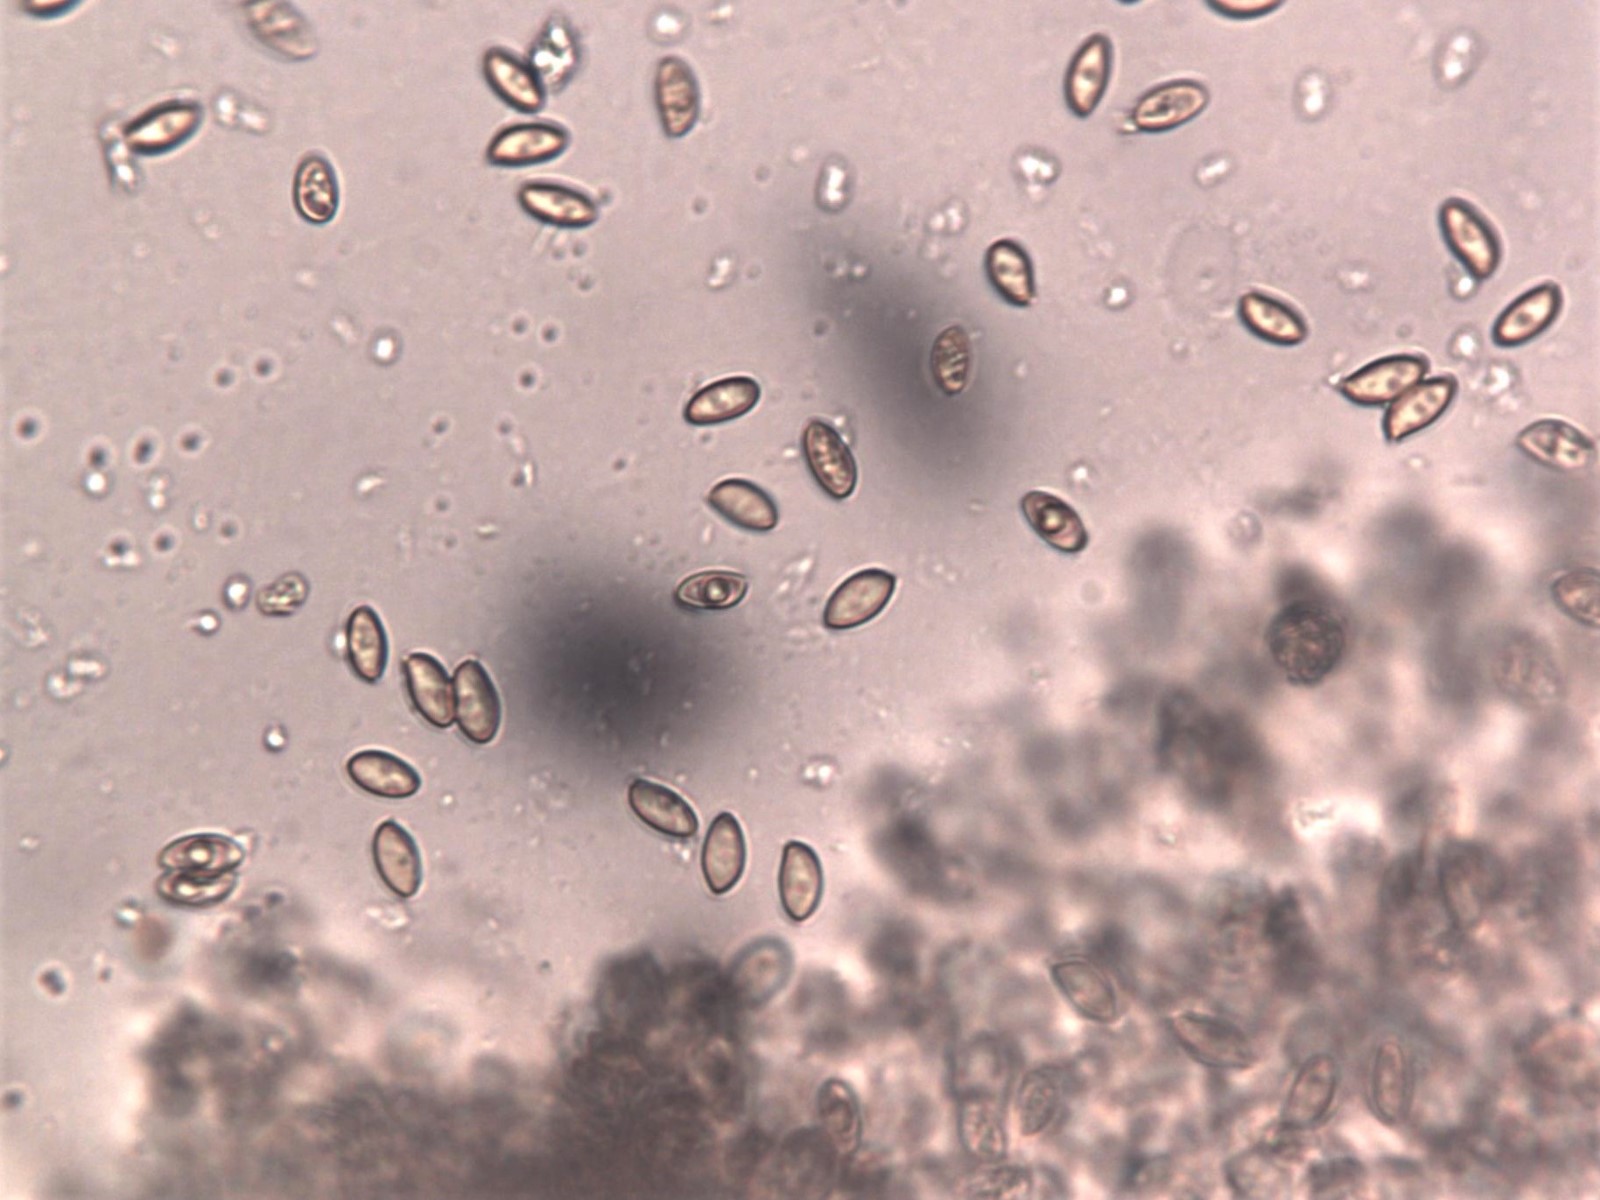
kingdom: Fungi
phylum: Basidiomycota
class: Agaricomycetes
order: Agaricales
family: Hymenogastraceae
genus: Galerina
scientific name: Galerina
